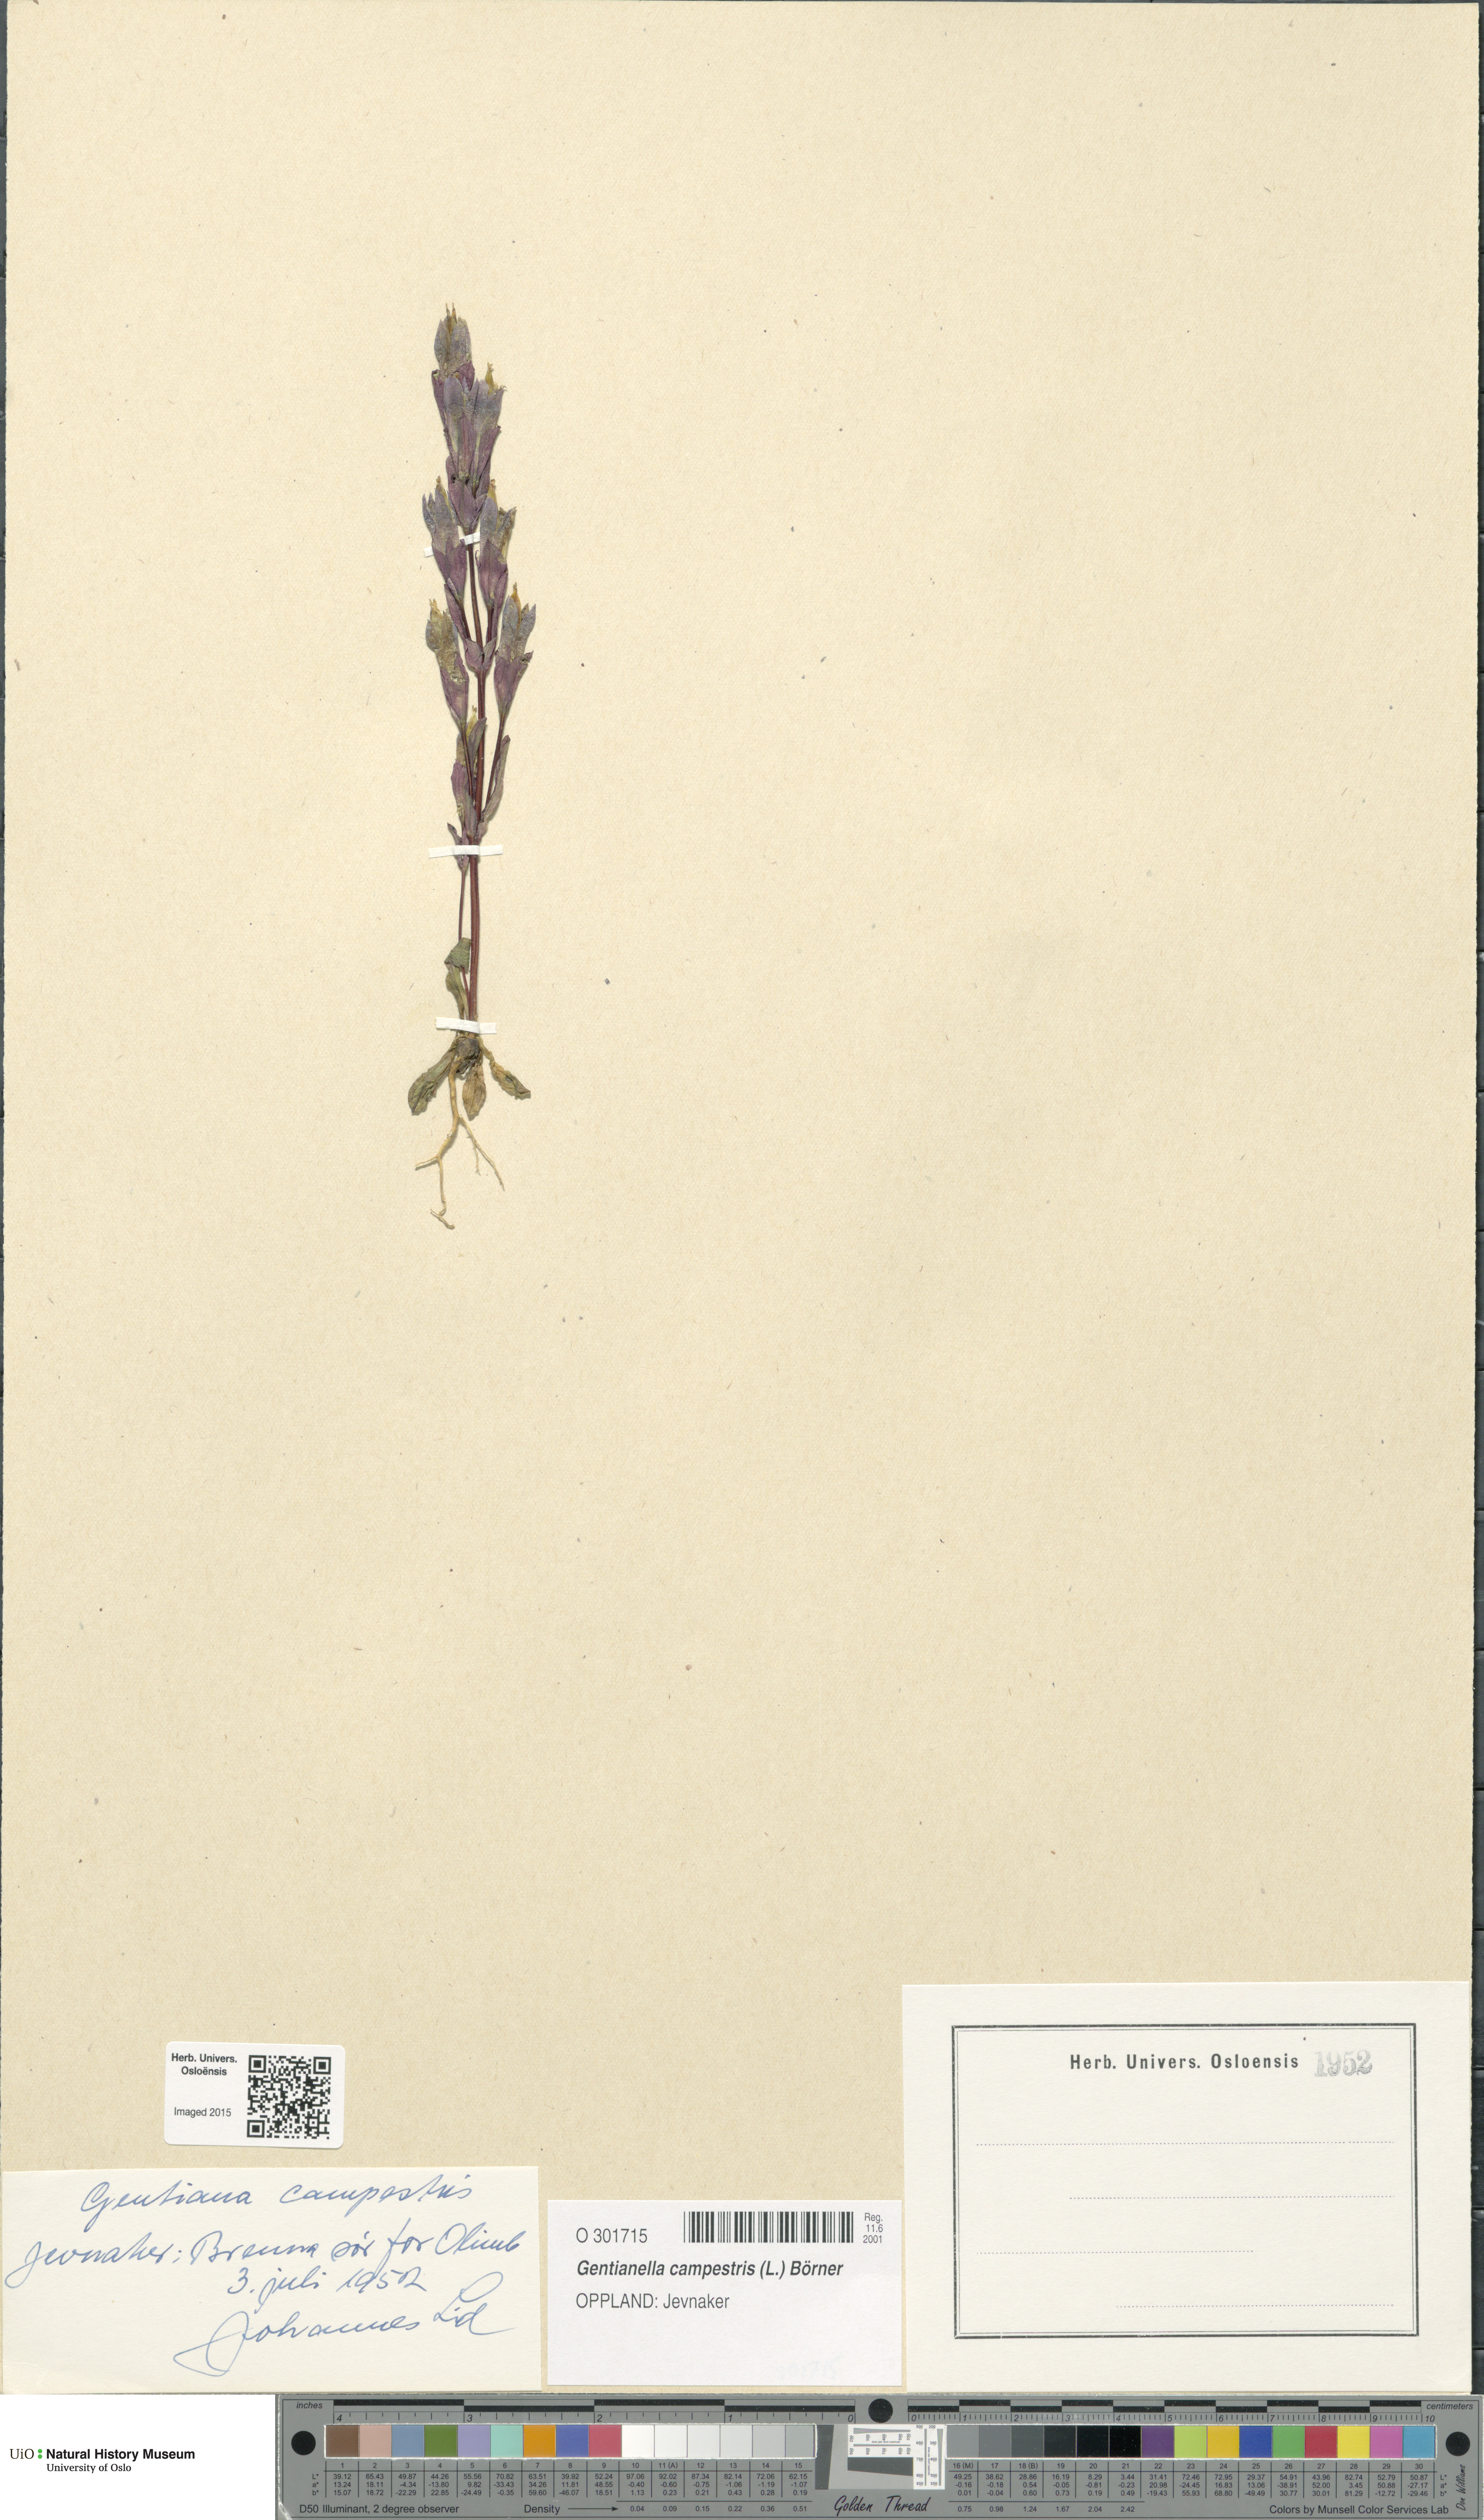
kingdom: Plantae
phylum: Tracheophyta
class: Magnoliopsida
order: Gentianales
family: Gentianaceae
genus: Gentianella
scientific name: Gentianella campestris
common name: Field gentian
